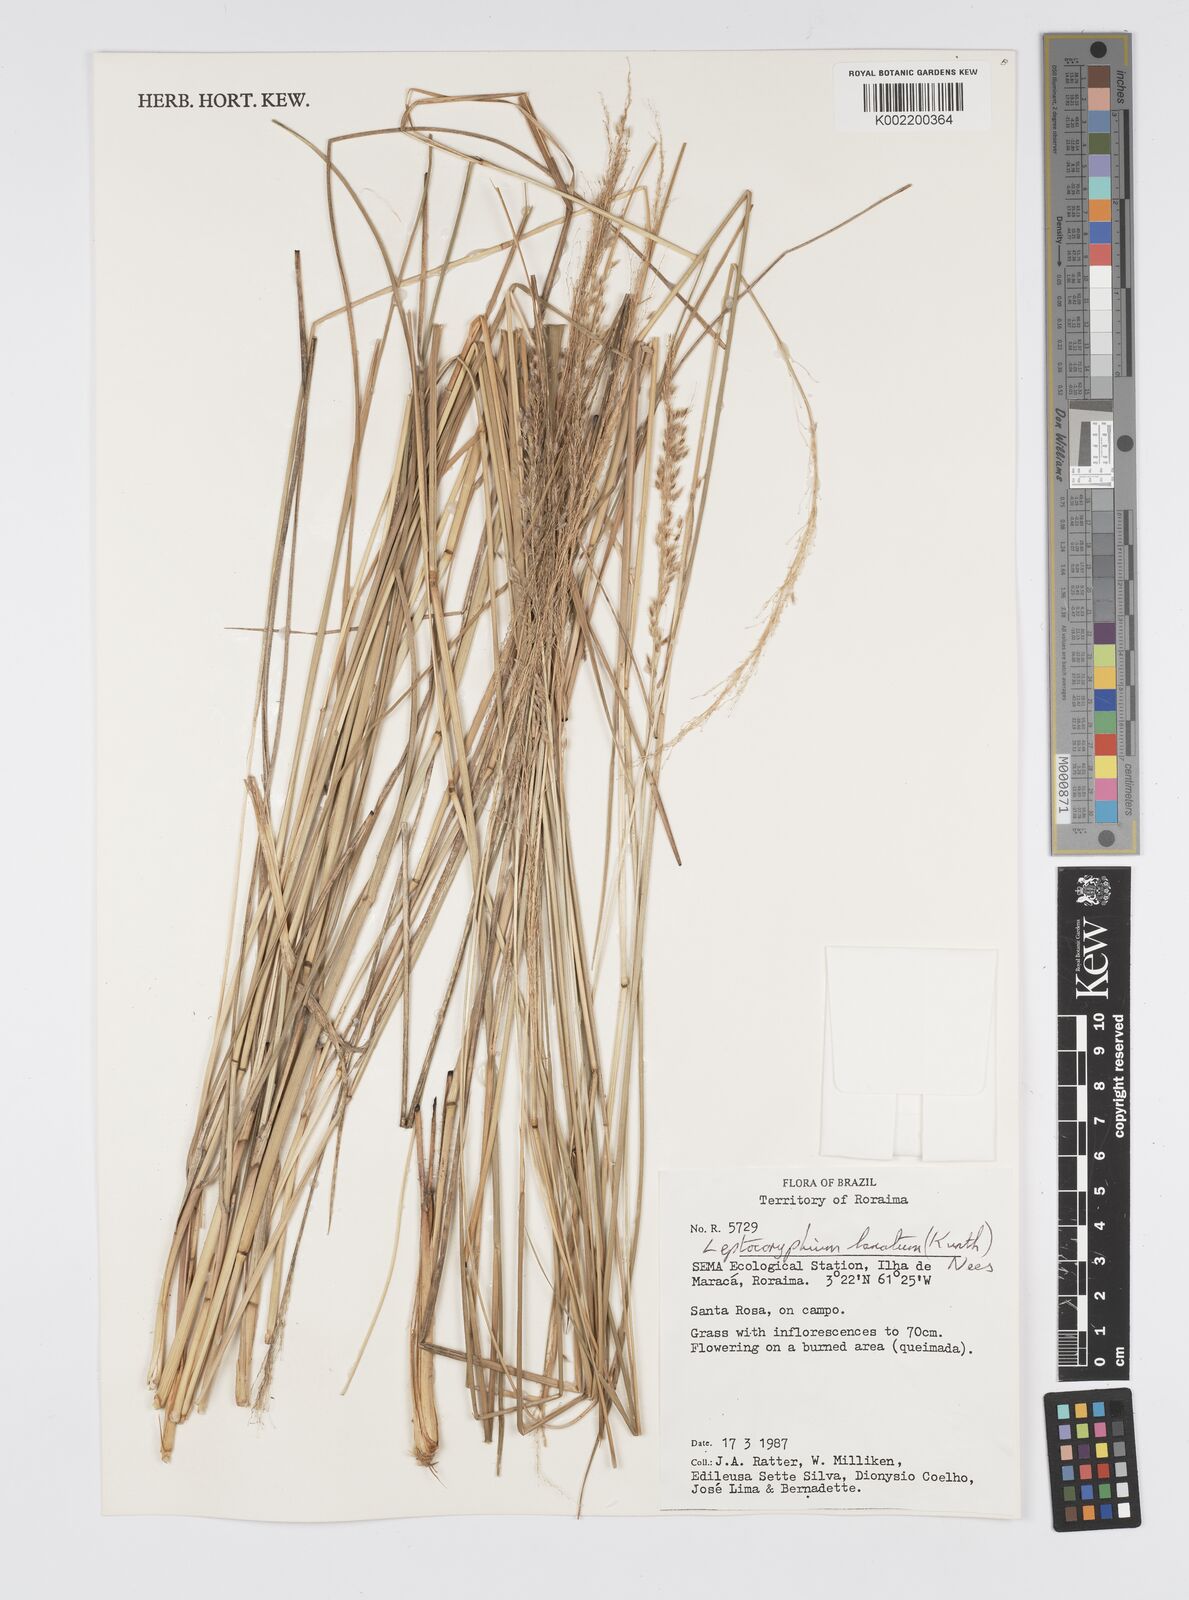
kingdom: Plantae
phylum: Tracheophyta
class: Liliopsida
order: Poales
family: Poaceae
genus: Anthenantia
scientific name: Anthenantia lanata
